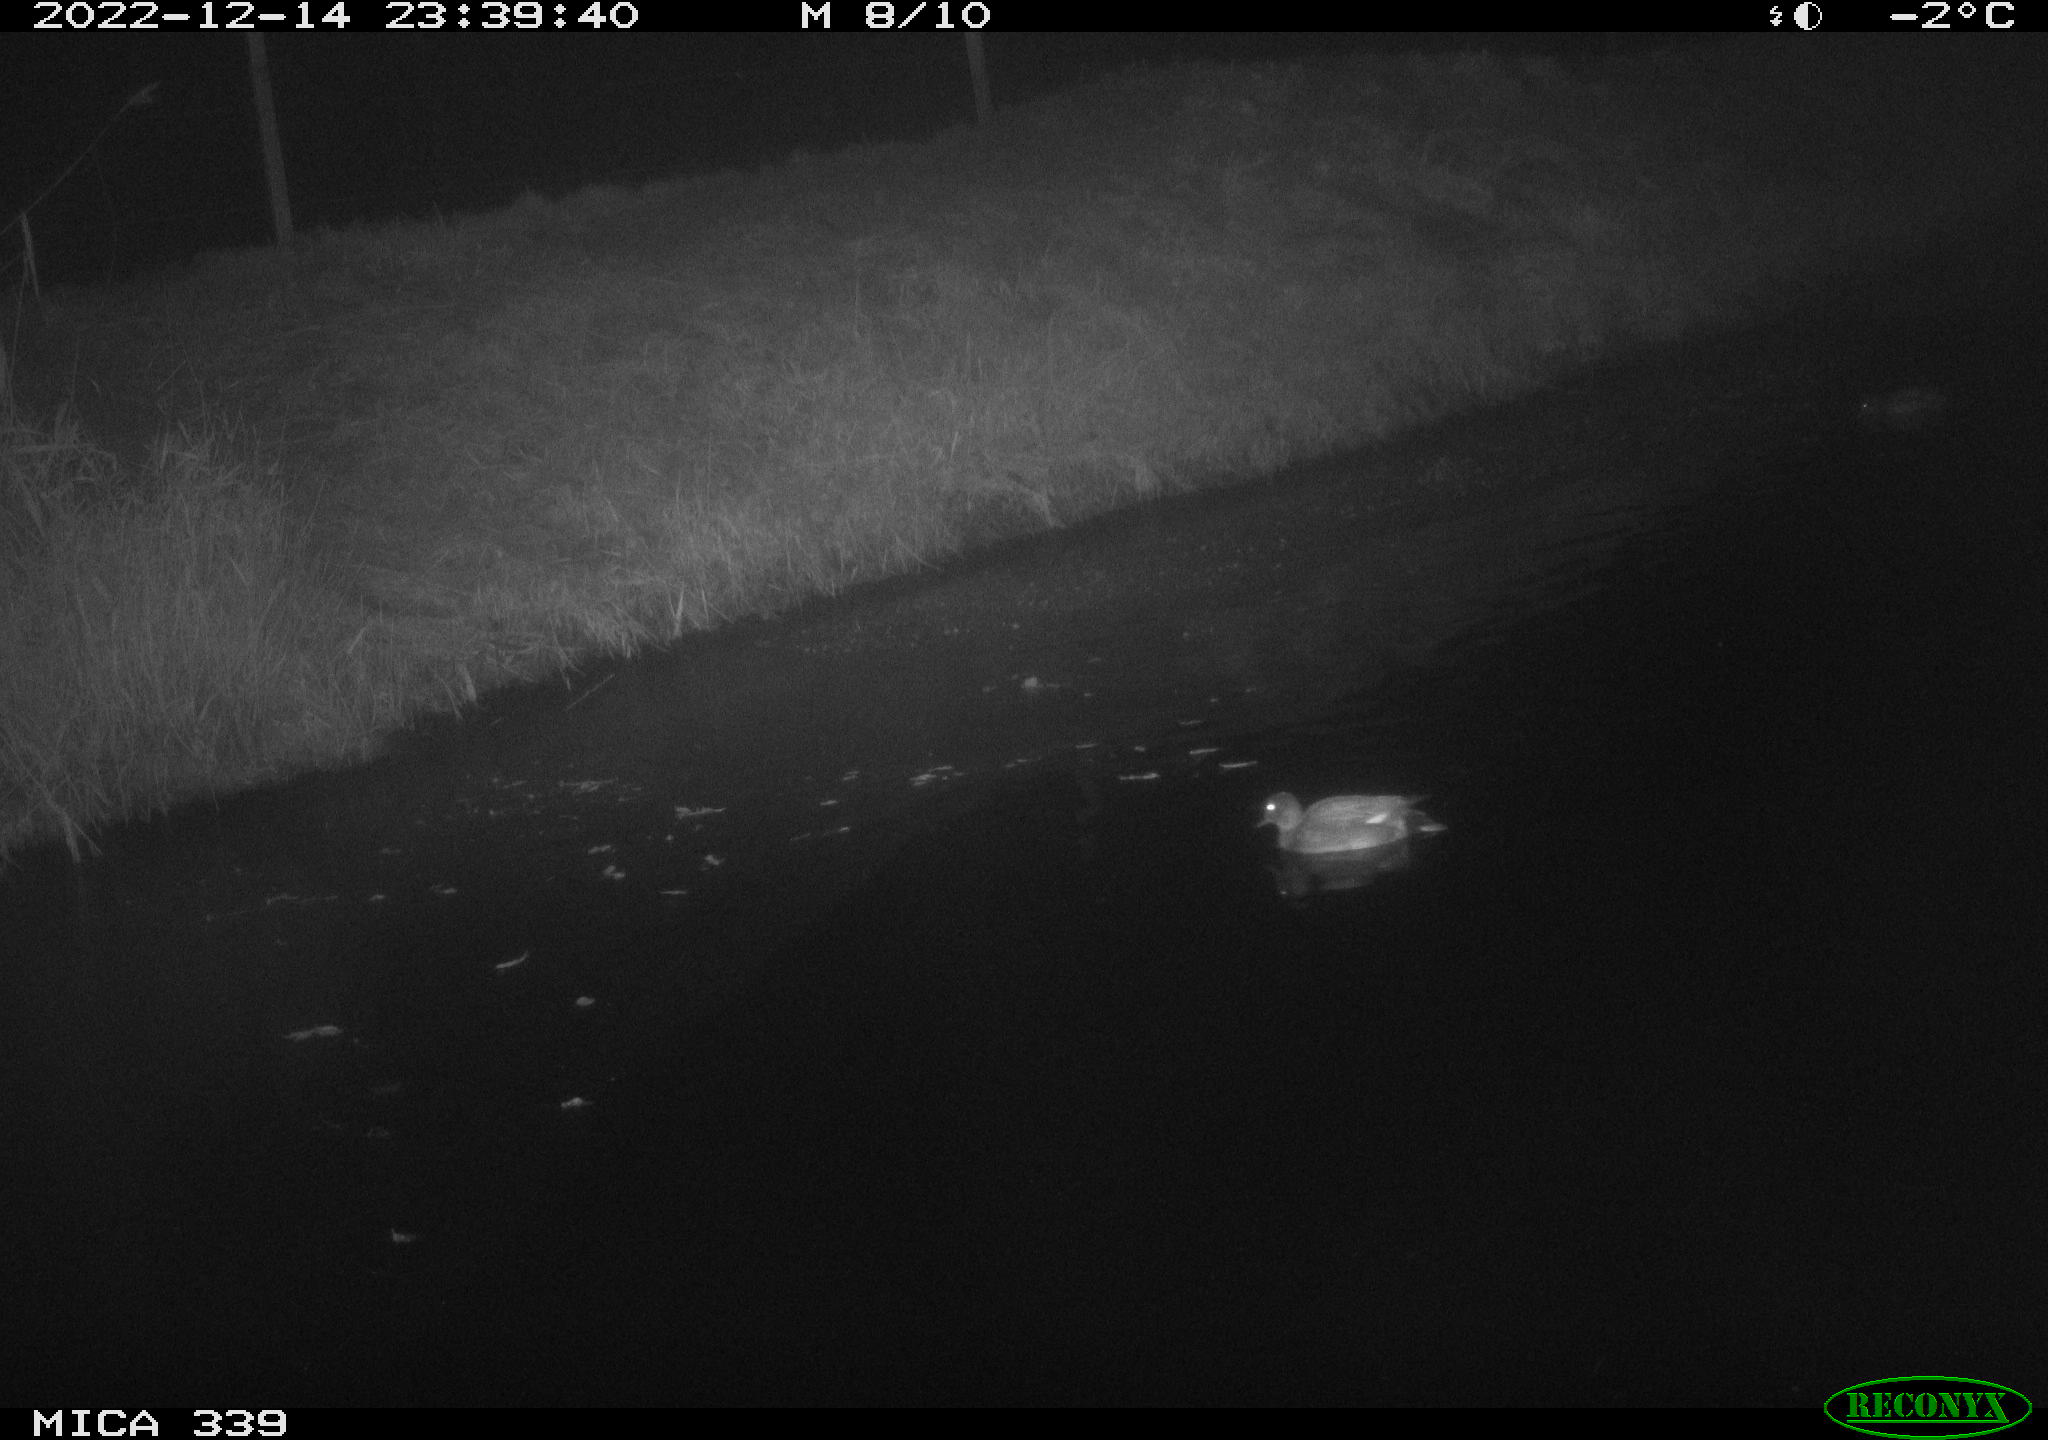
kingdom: Animalia
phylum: Chordata
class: Aves
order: Anseriformes
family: Anatidae
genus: Anas
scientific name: Anas
